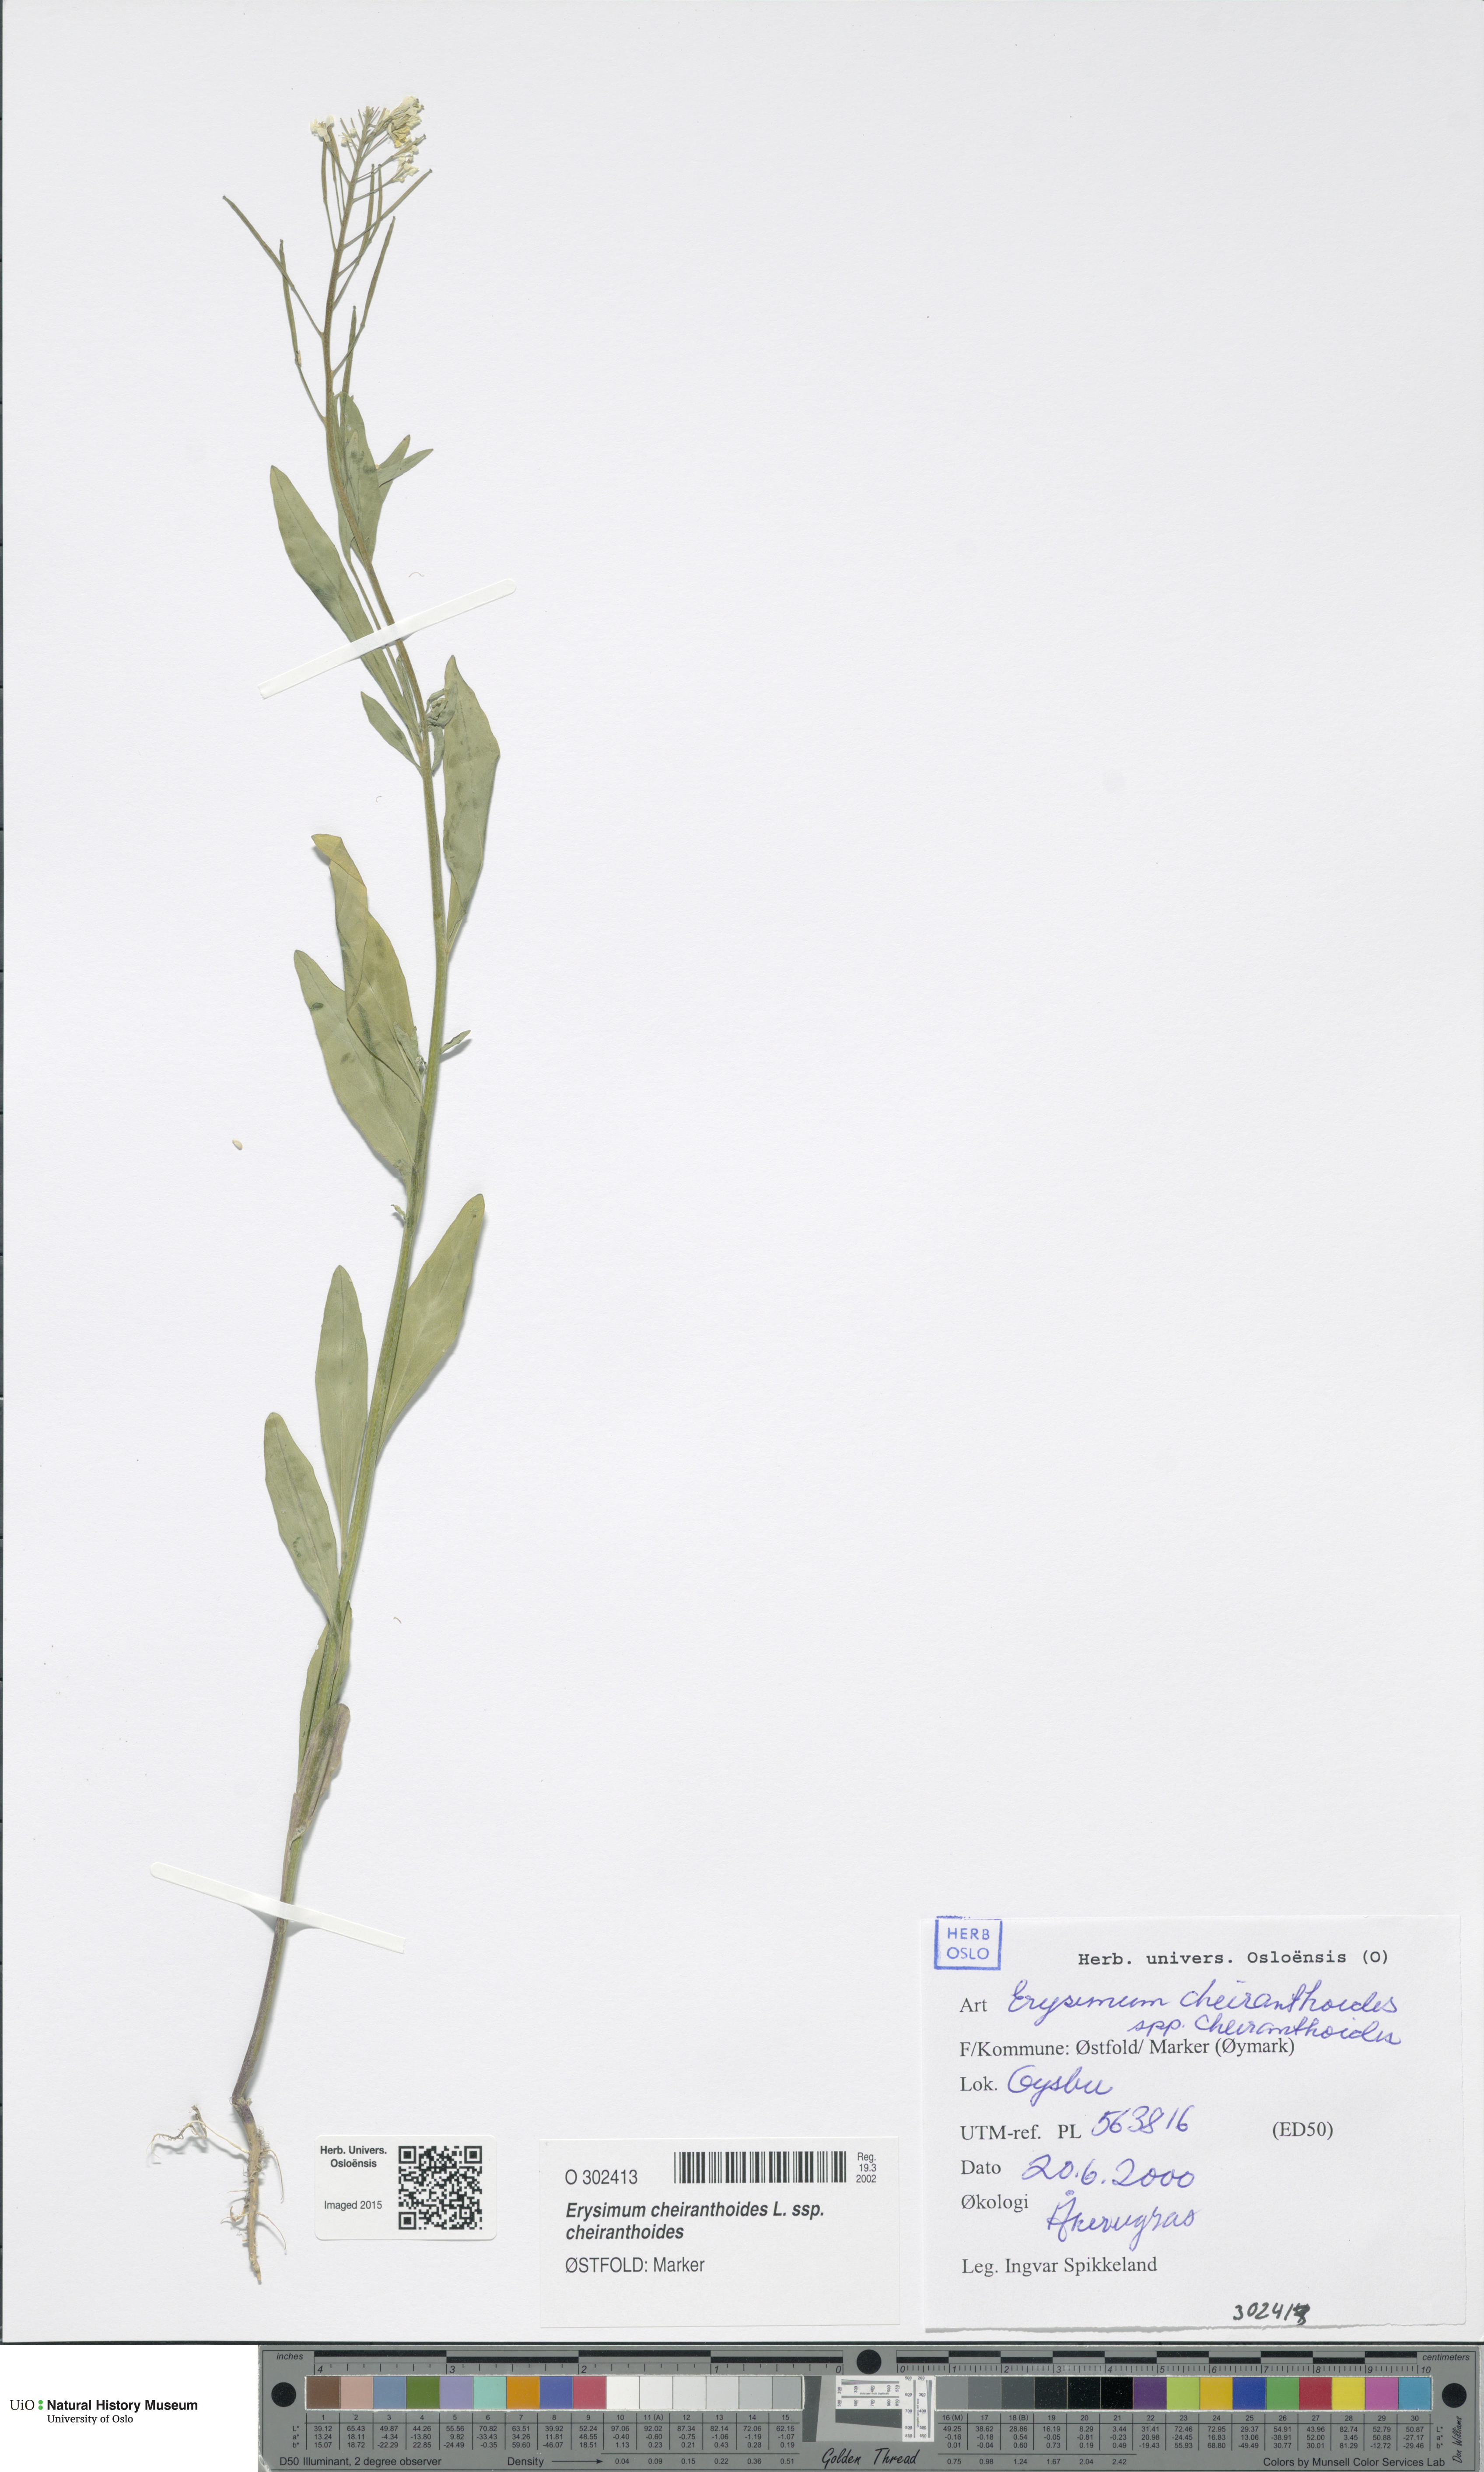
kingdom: Plantae
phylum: Tracheophyta
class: Magnoliopsida
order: Brassicales
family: Brassicaceae
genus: Erysimum
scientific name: Erysimum cheiranthoides
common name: Treacle mustard
